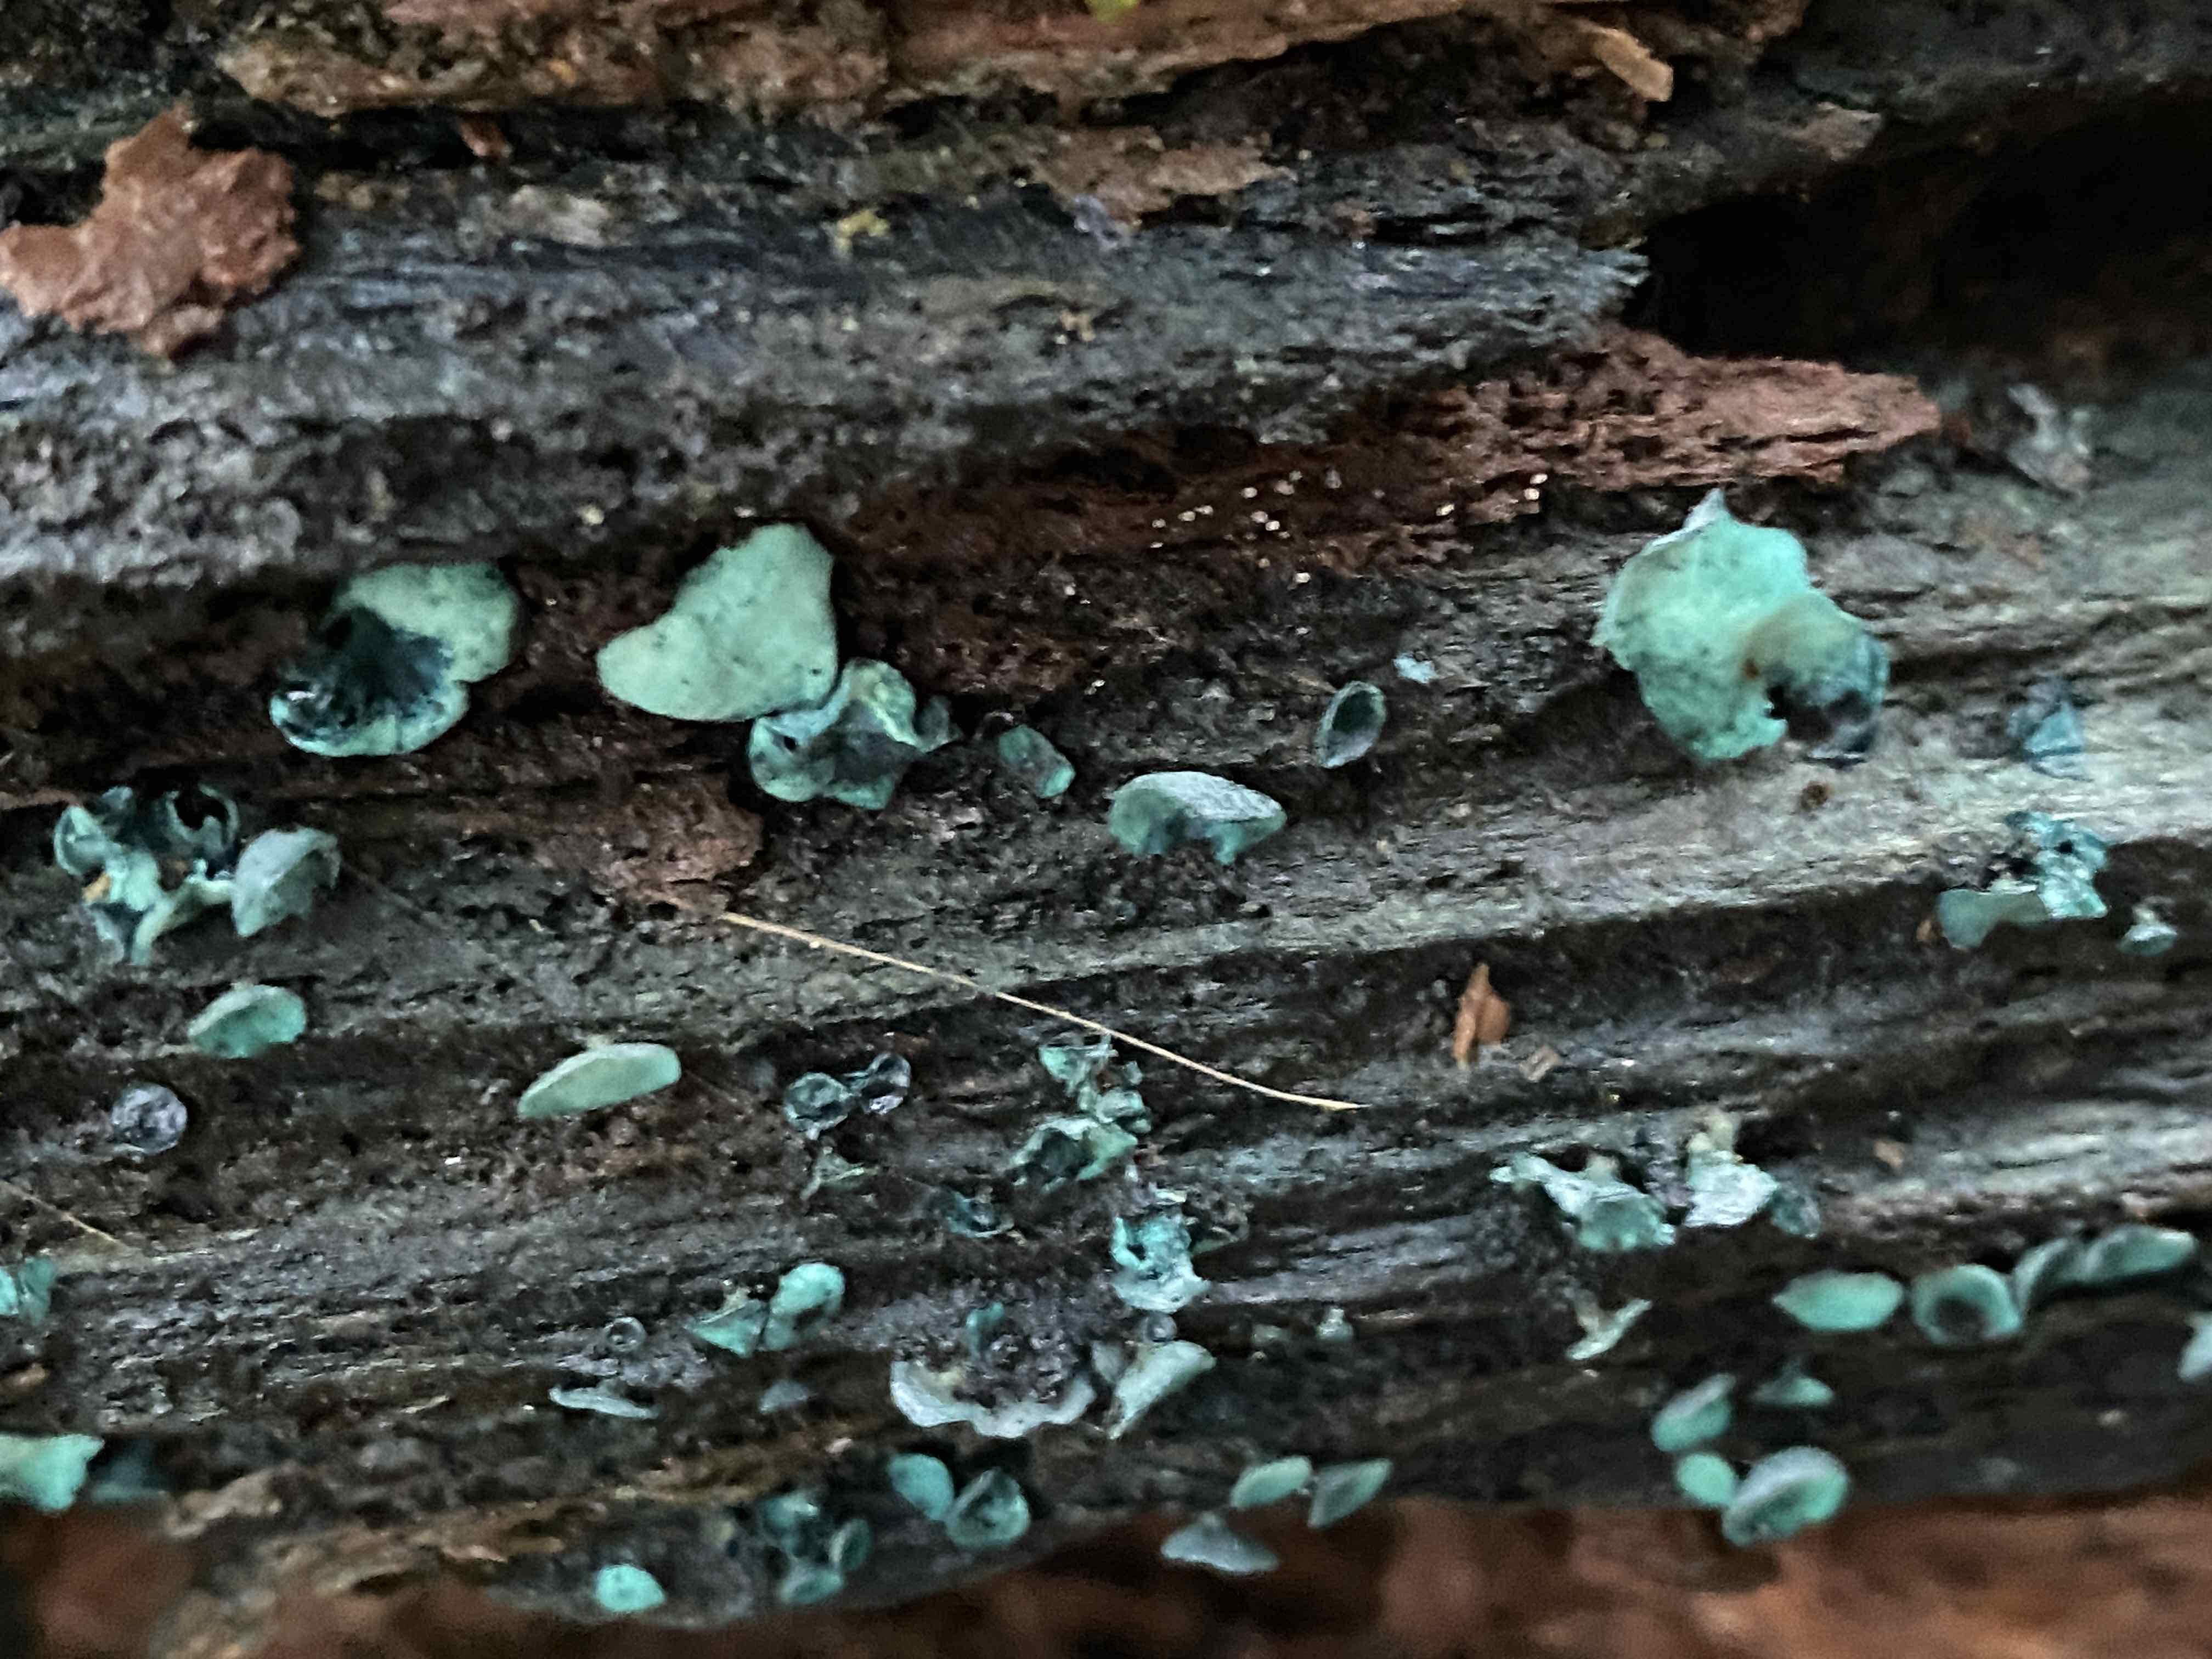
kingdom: Fungi
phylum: Ascomycota
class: Leotiomycetes
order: Helotiales
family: Chlorociboriaceae
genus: Chlorociboria
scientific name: Chlorociboria aeruginascens
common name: almindelig grønskive
